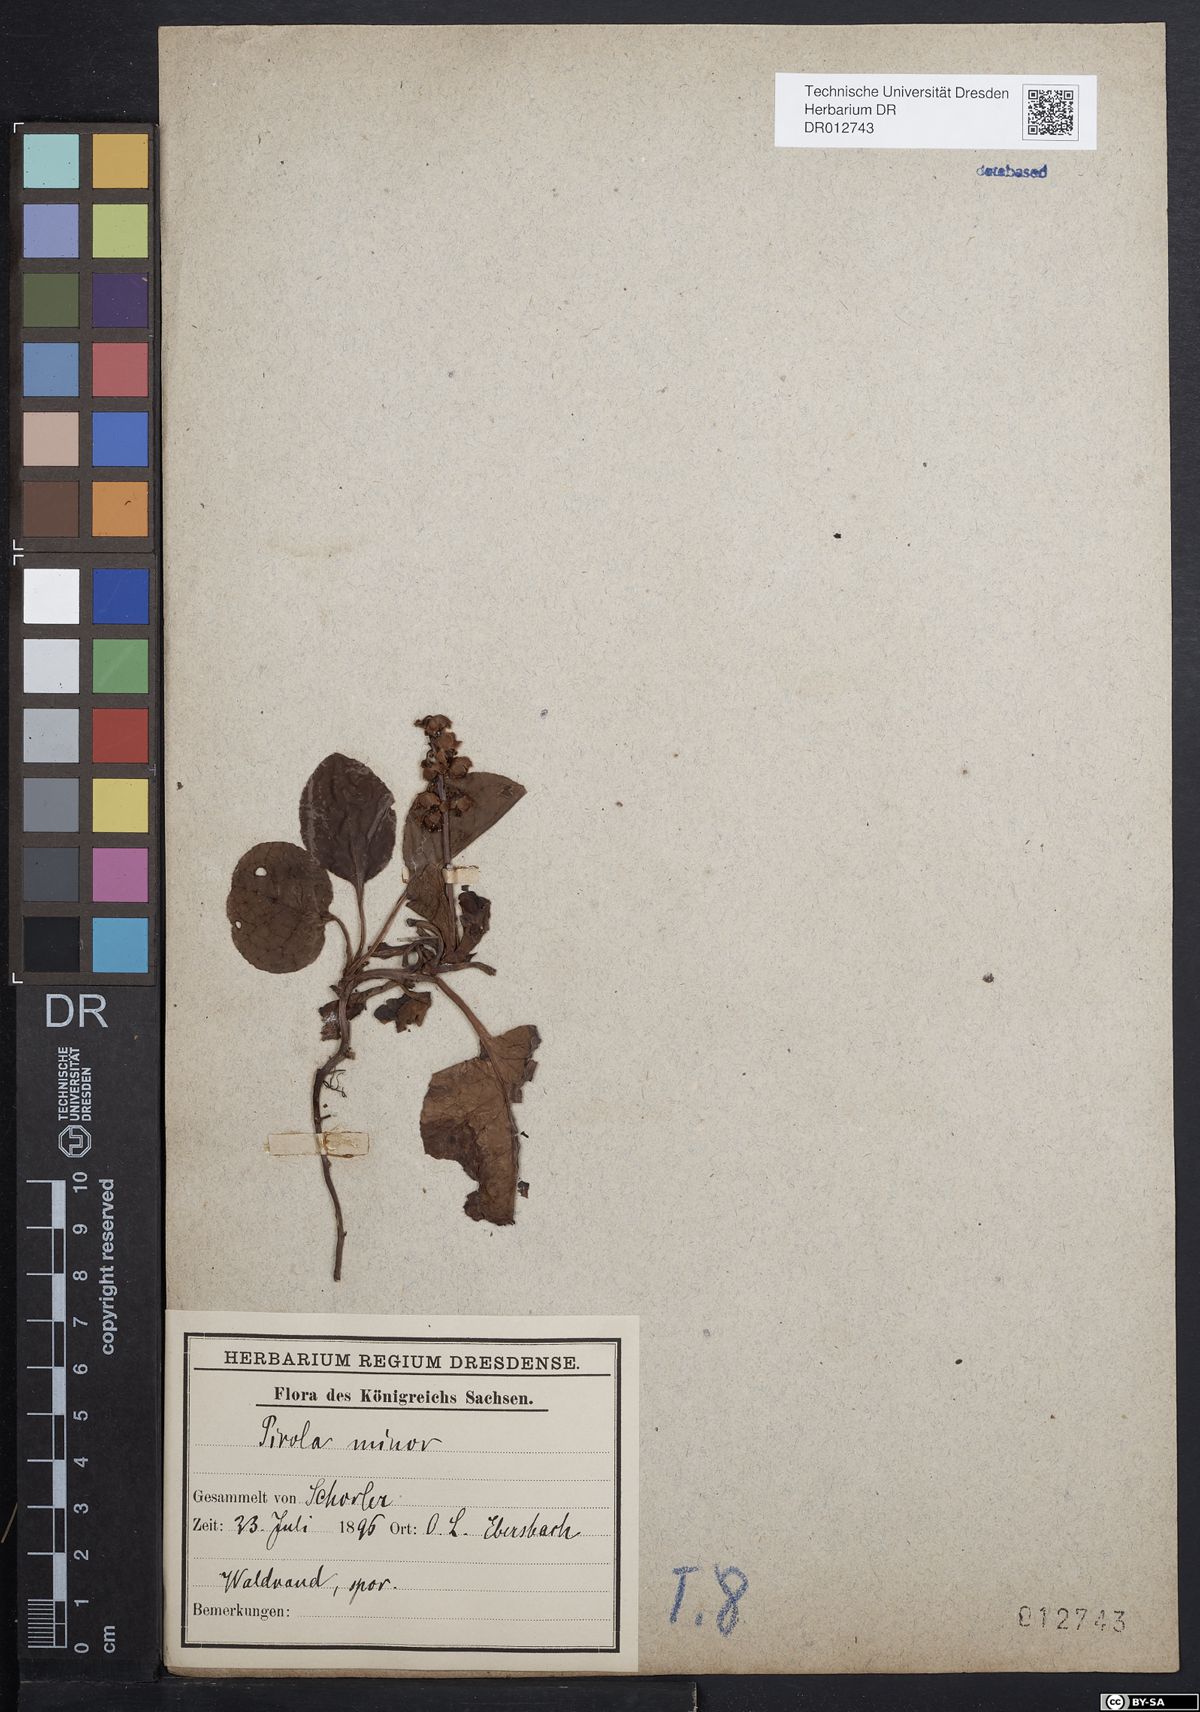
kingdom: Plantae
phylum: Tracheophyta
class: Magnoliopsida
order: Ericales
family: Ericaceae
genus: Pyrola
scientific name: Pyrola minor
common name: Common wintergreen
